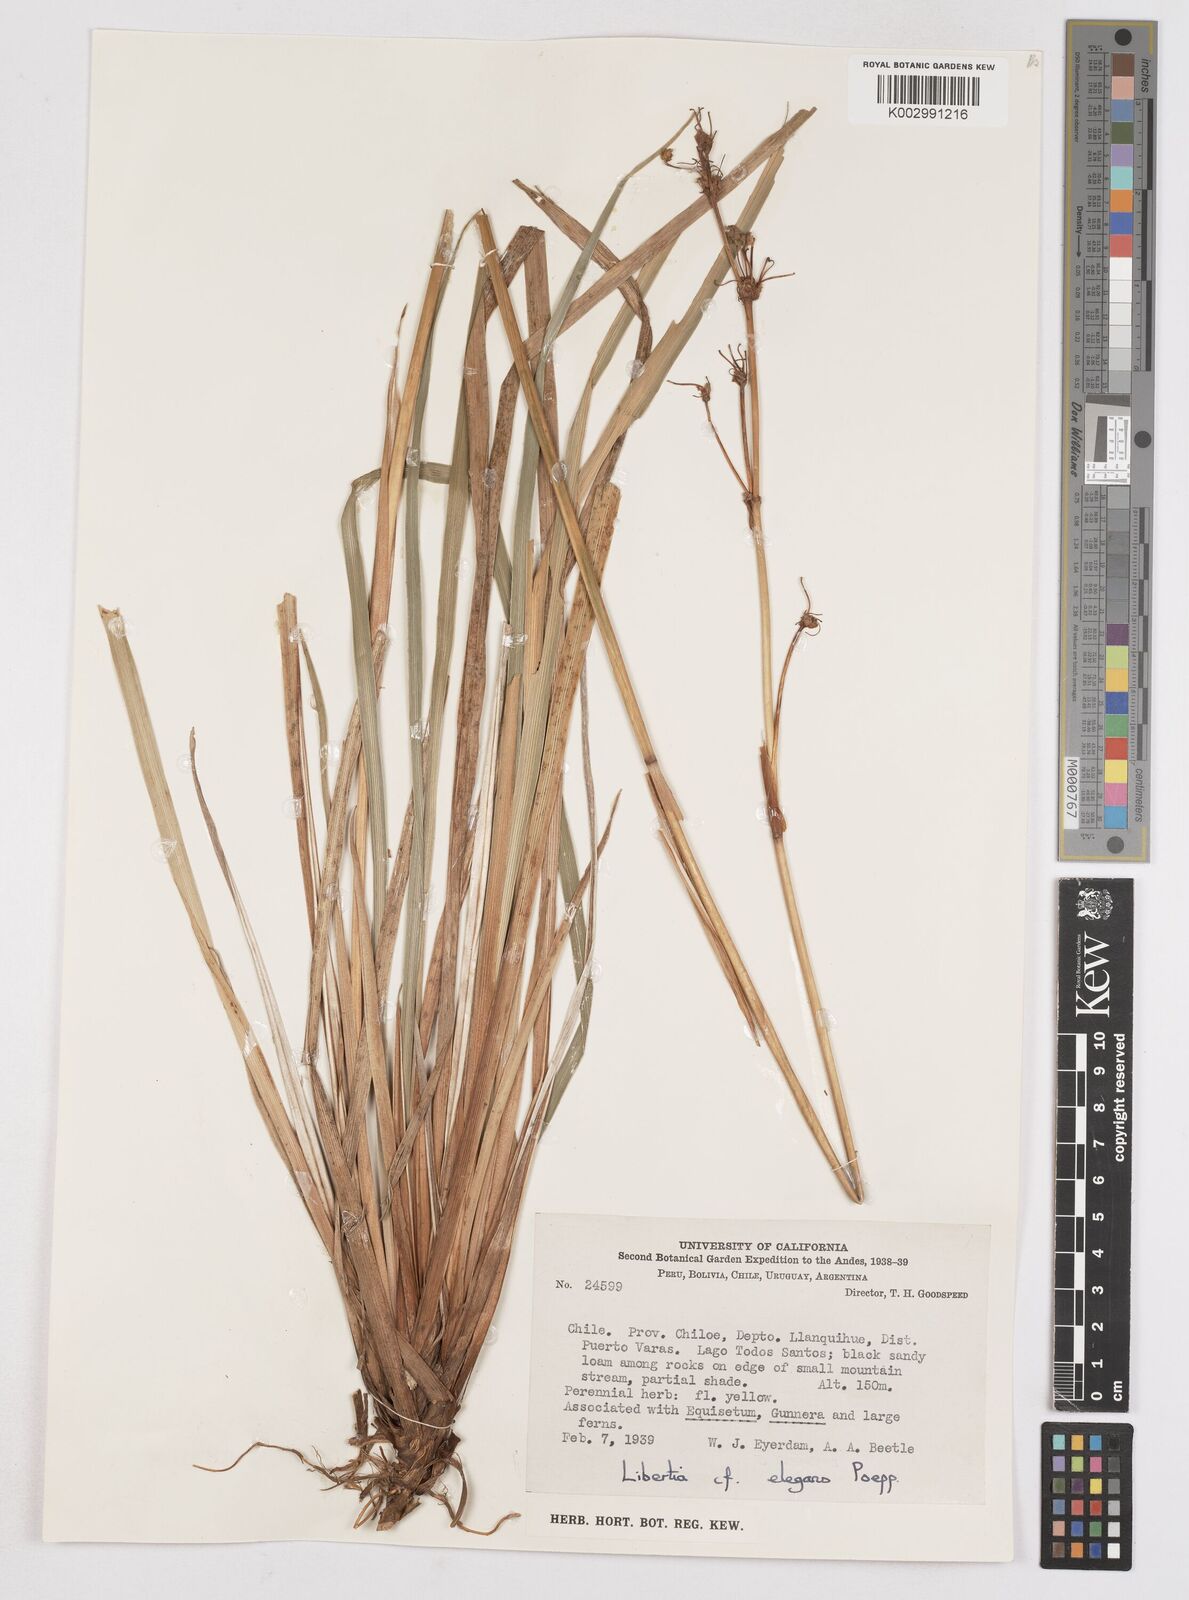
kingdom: Plantae
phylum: Tracheophyta
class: Liliopsida
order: Asparagales
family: Iridaceae
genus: Libertia
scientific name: Libertia chilensis
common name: Satin flower
